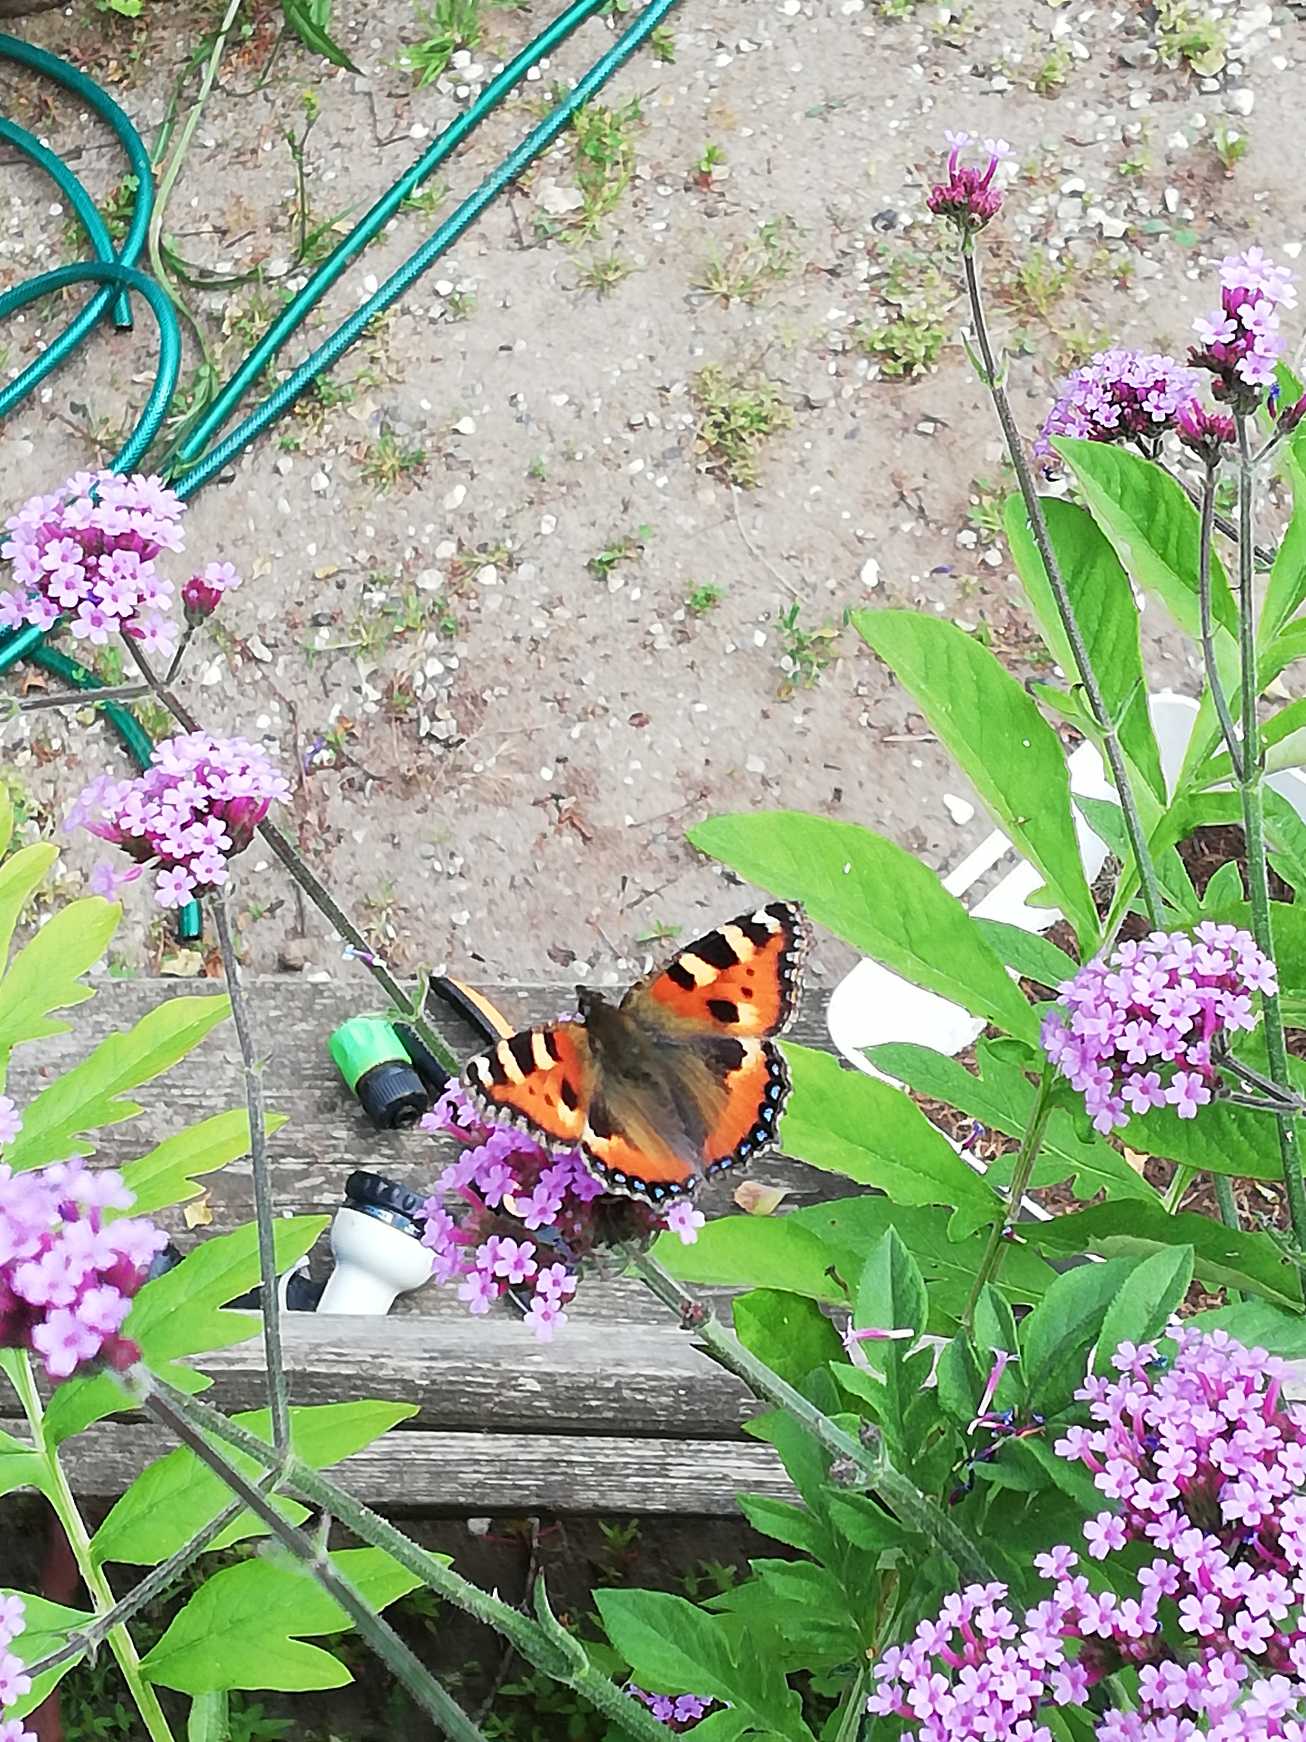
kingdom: Animalia
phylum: Arthropoda
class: Insecta
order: Lepidoptera
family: Nymphalidae
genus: Aglais
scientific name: Aglais urticae
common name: Nældens takvinge
